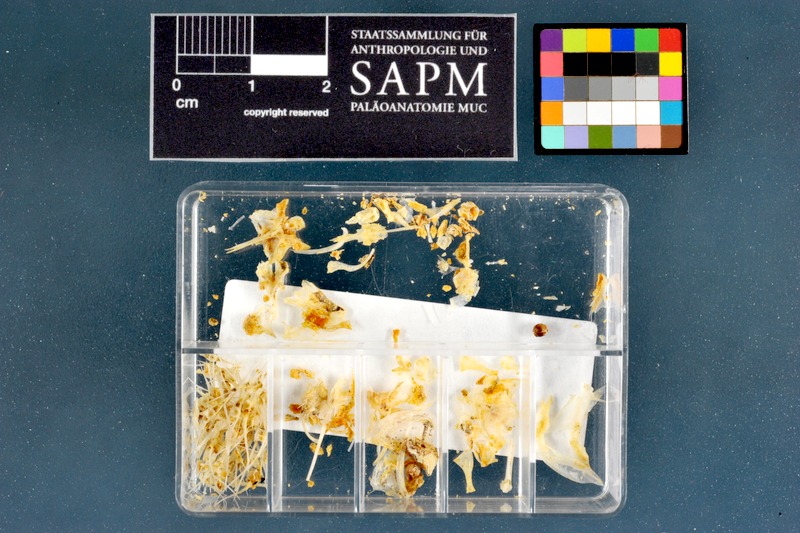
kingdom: Animalia
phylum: Chordata
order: Siluriformes
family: Schilbeidae
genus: Siluranodon
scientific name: Siluranodon auritus
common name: Butterfish
